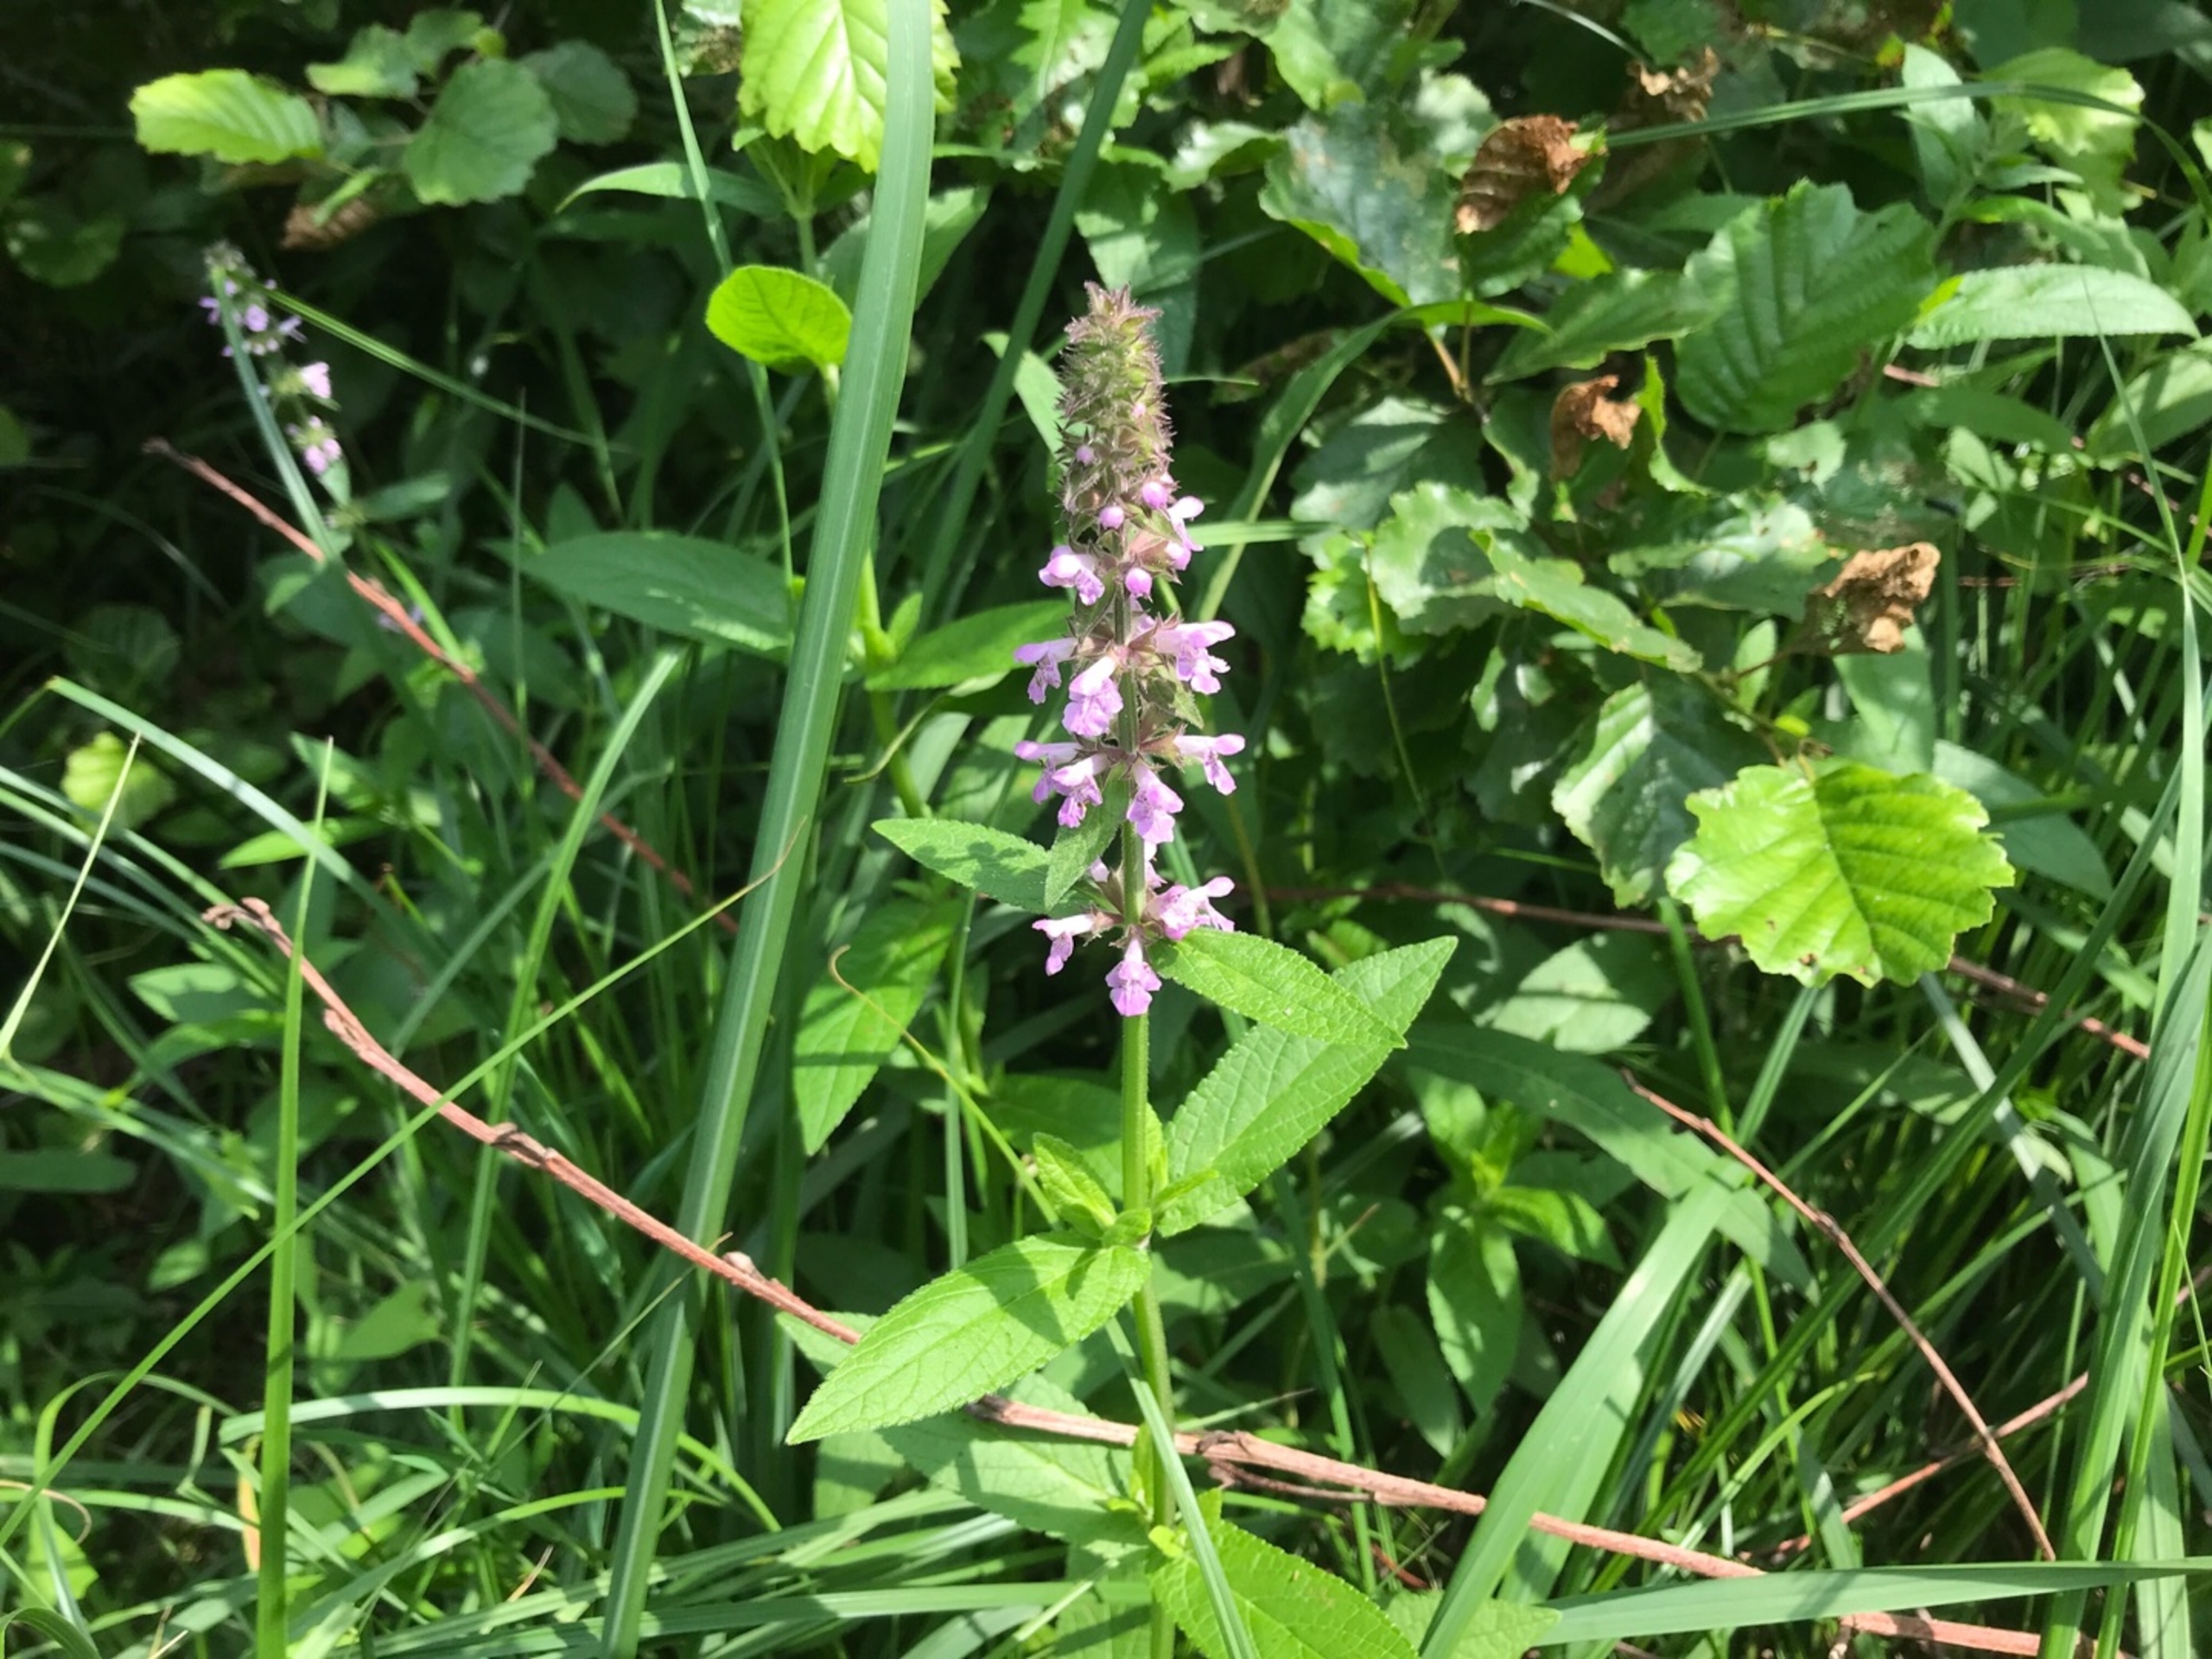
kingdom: Plantae
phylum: Tracheophyta
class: Magnoliopsida
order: Lamiales
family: Lamiaceae
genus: Stachys
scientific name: Stachys palustris
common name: Kær-galtetand
